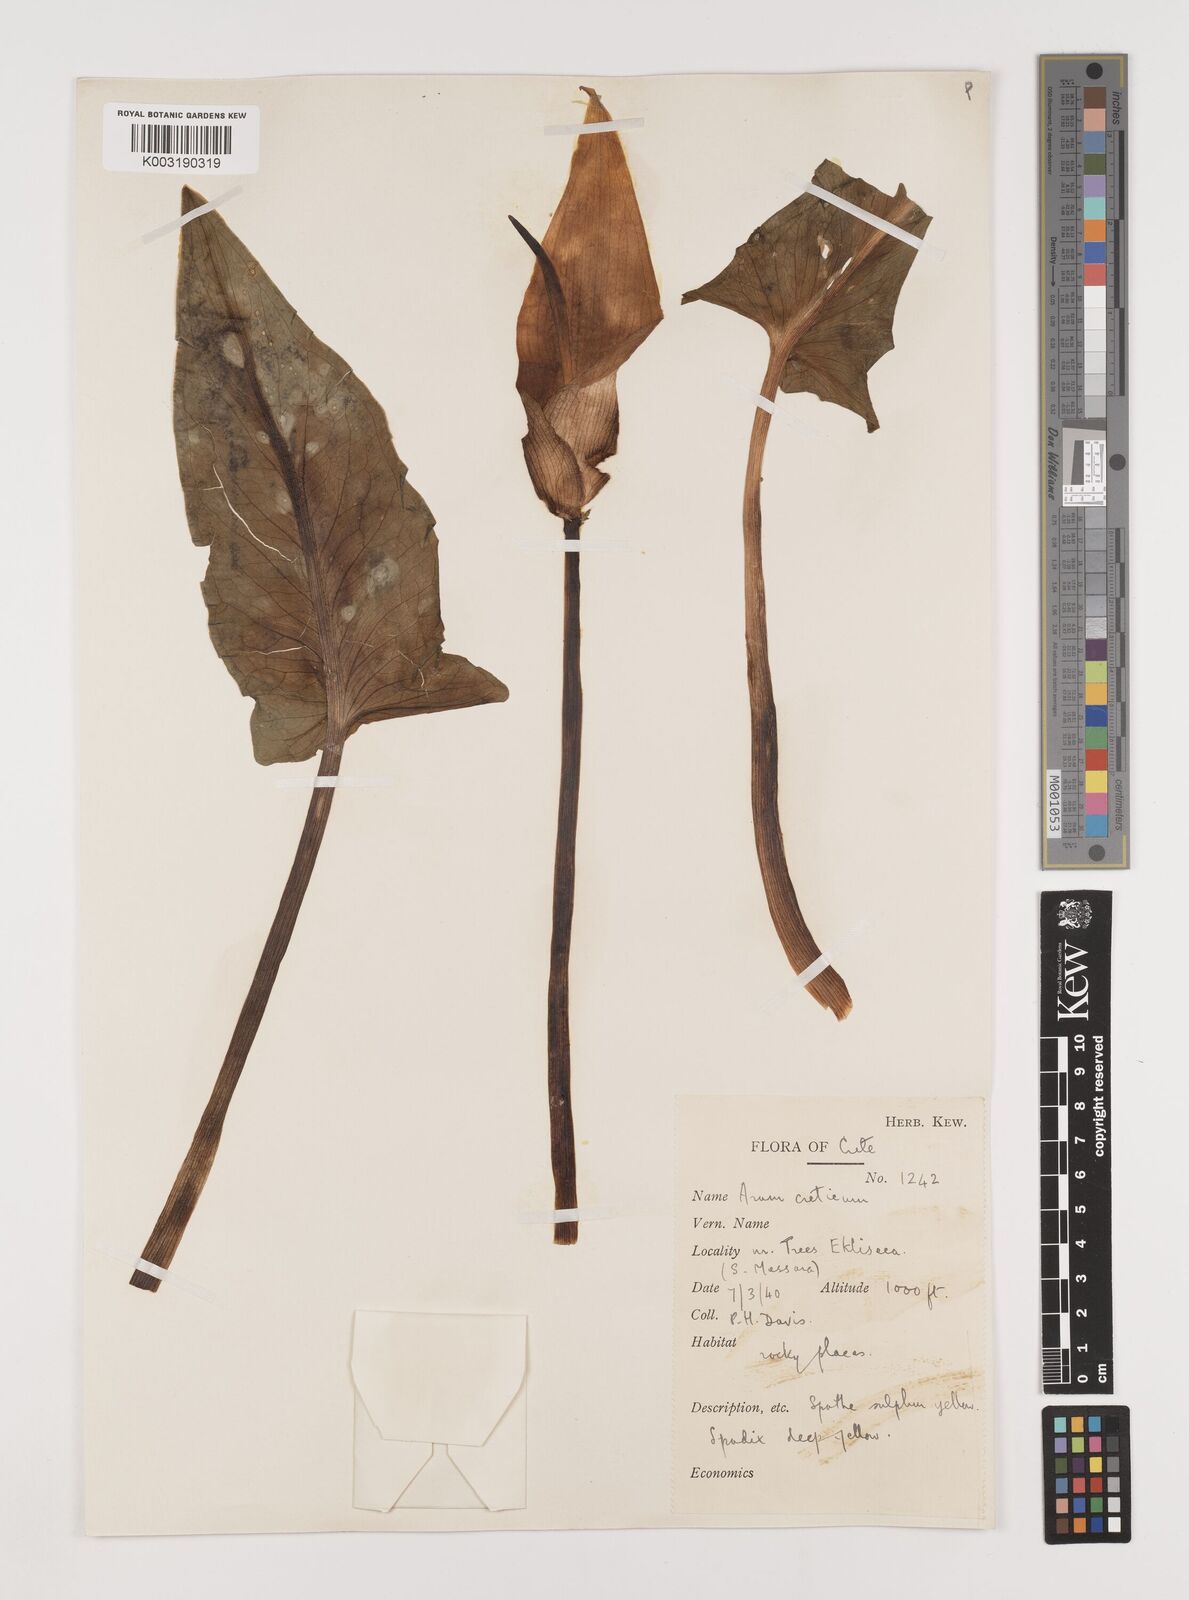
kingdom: Plantae
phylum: Tracheophyta
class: Liliopsida
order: Alismatales
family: Araceae
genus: Arum
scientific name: Arum creticum
